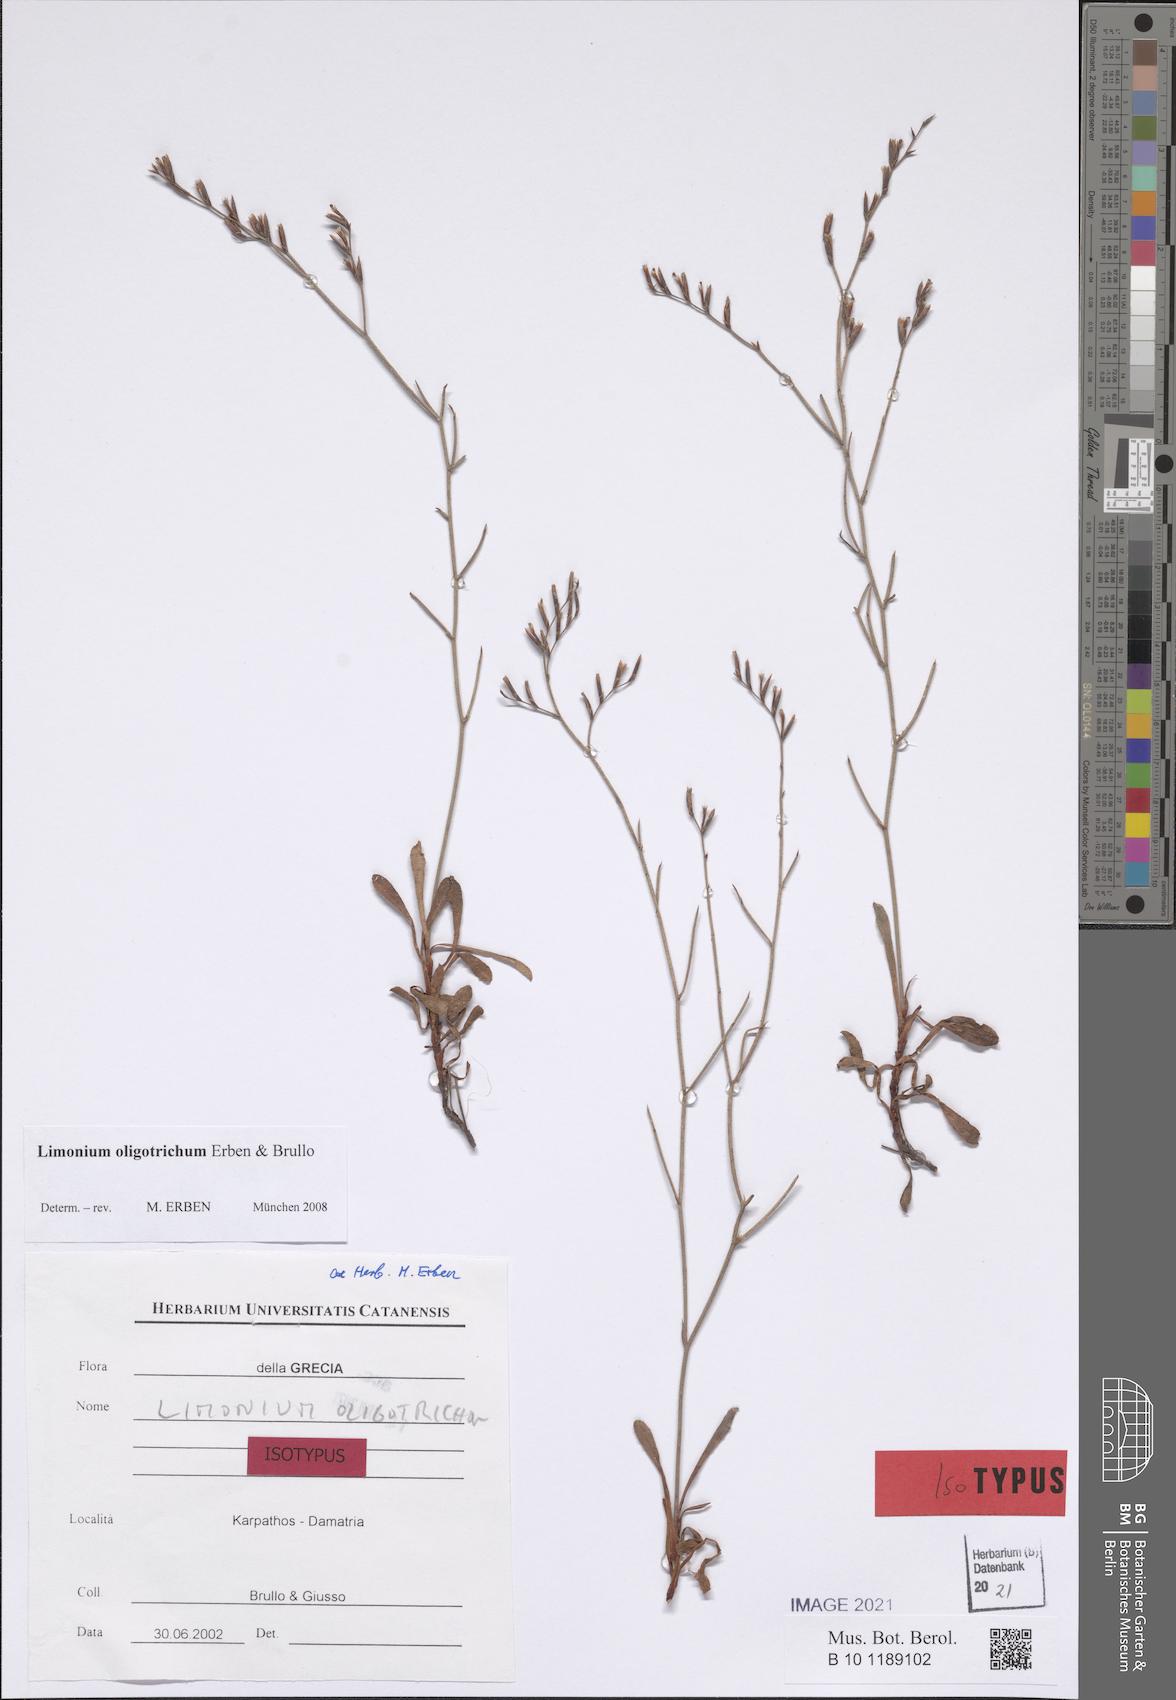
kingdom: Plantae
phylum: Tracheophyta
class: Magnoliopsida
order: Caryophyllales
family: Plumbaginaceae
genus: Limonium
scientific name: Limonium oligotrichum
